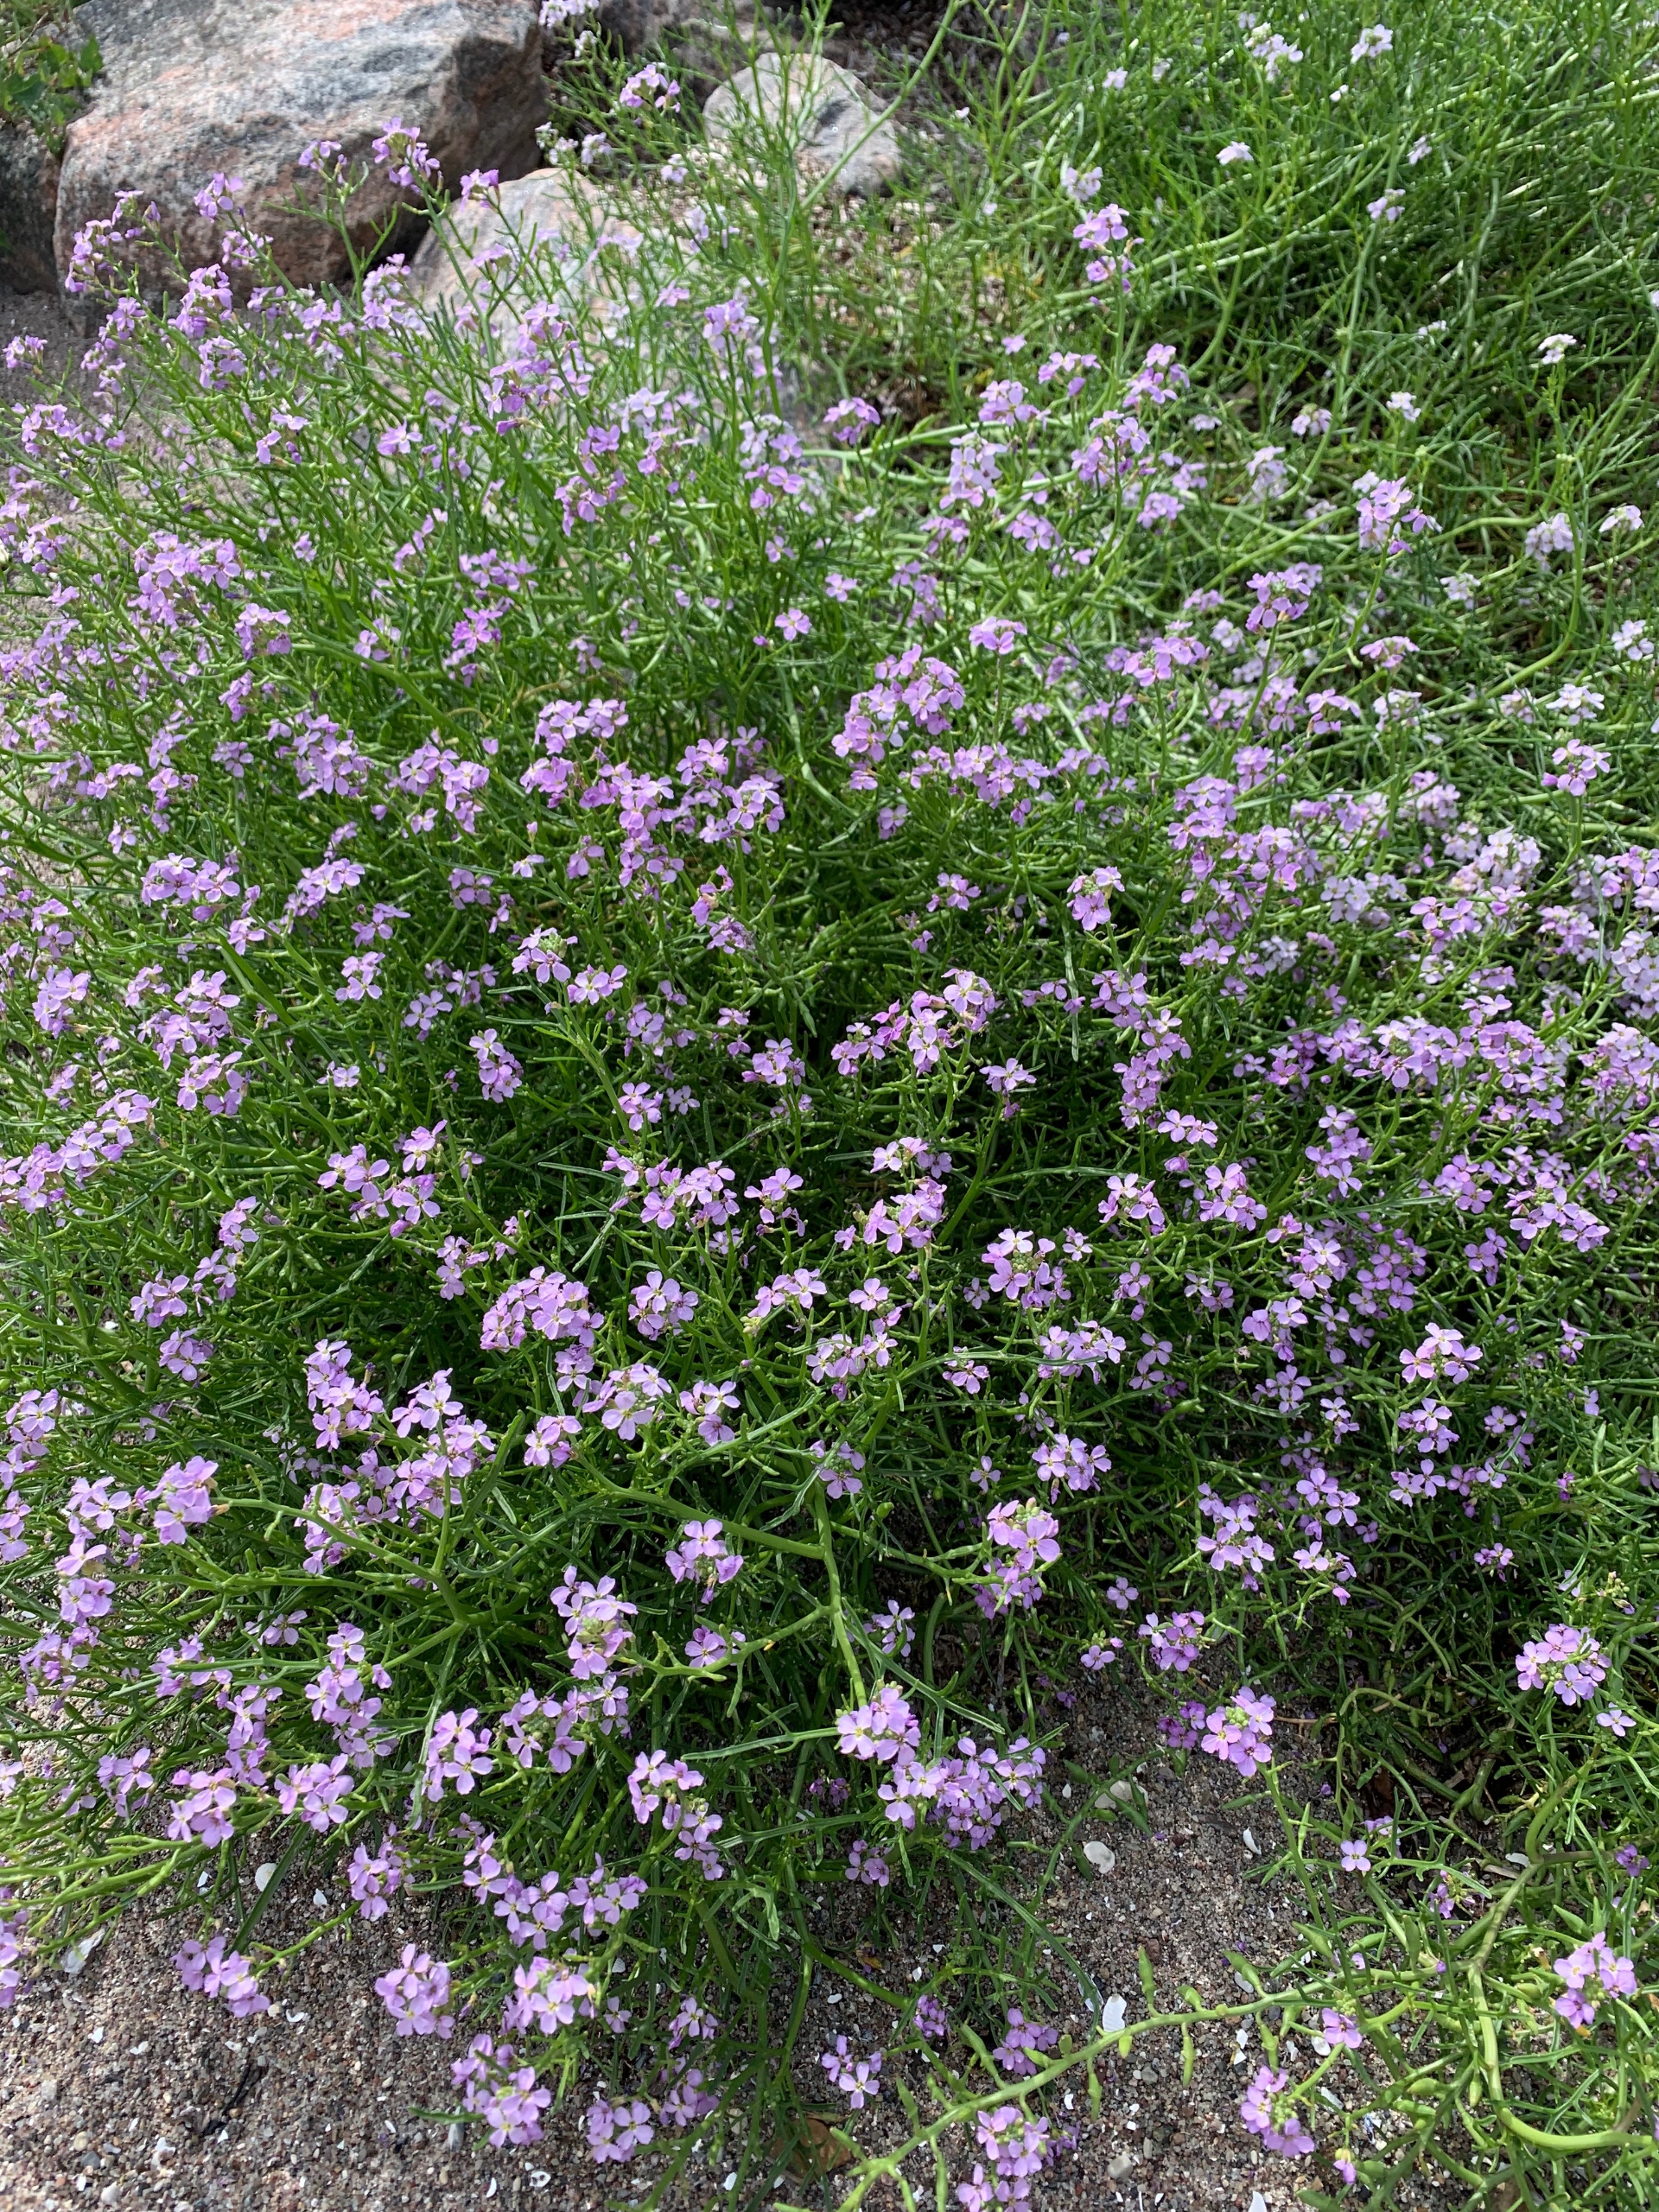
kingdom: Plantae
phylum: Tracheophyta
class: Magnoliopsida
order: Brassicales
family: Brassicaceae
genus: Cakile
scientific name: Cakile maritima
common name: Østersø-strandsennep
